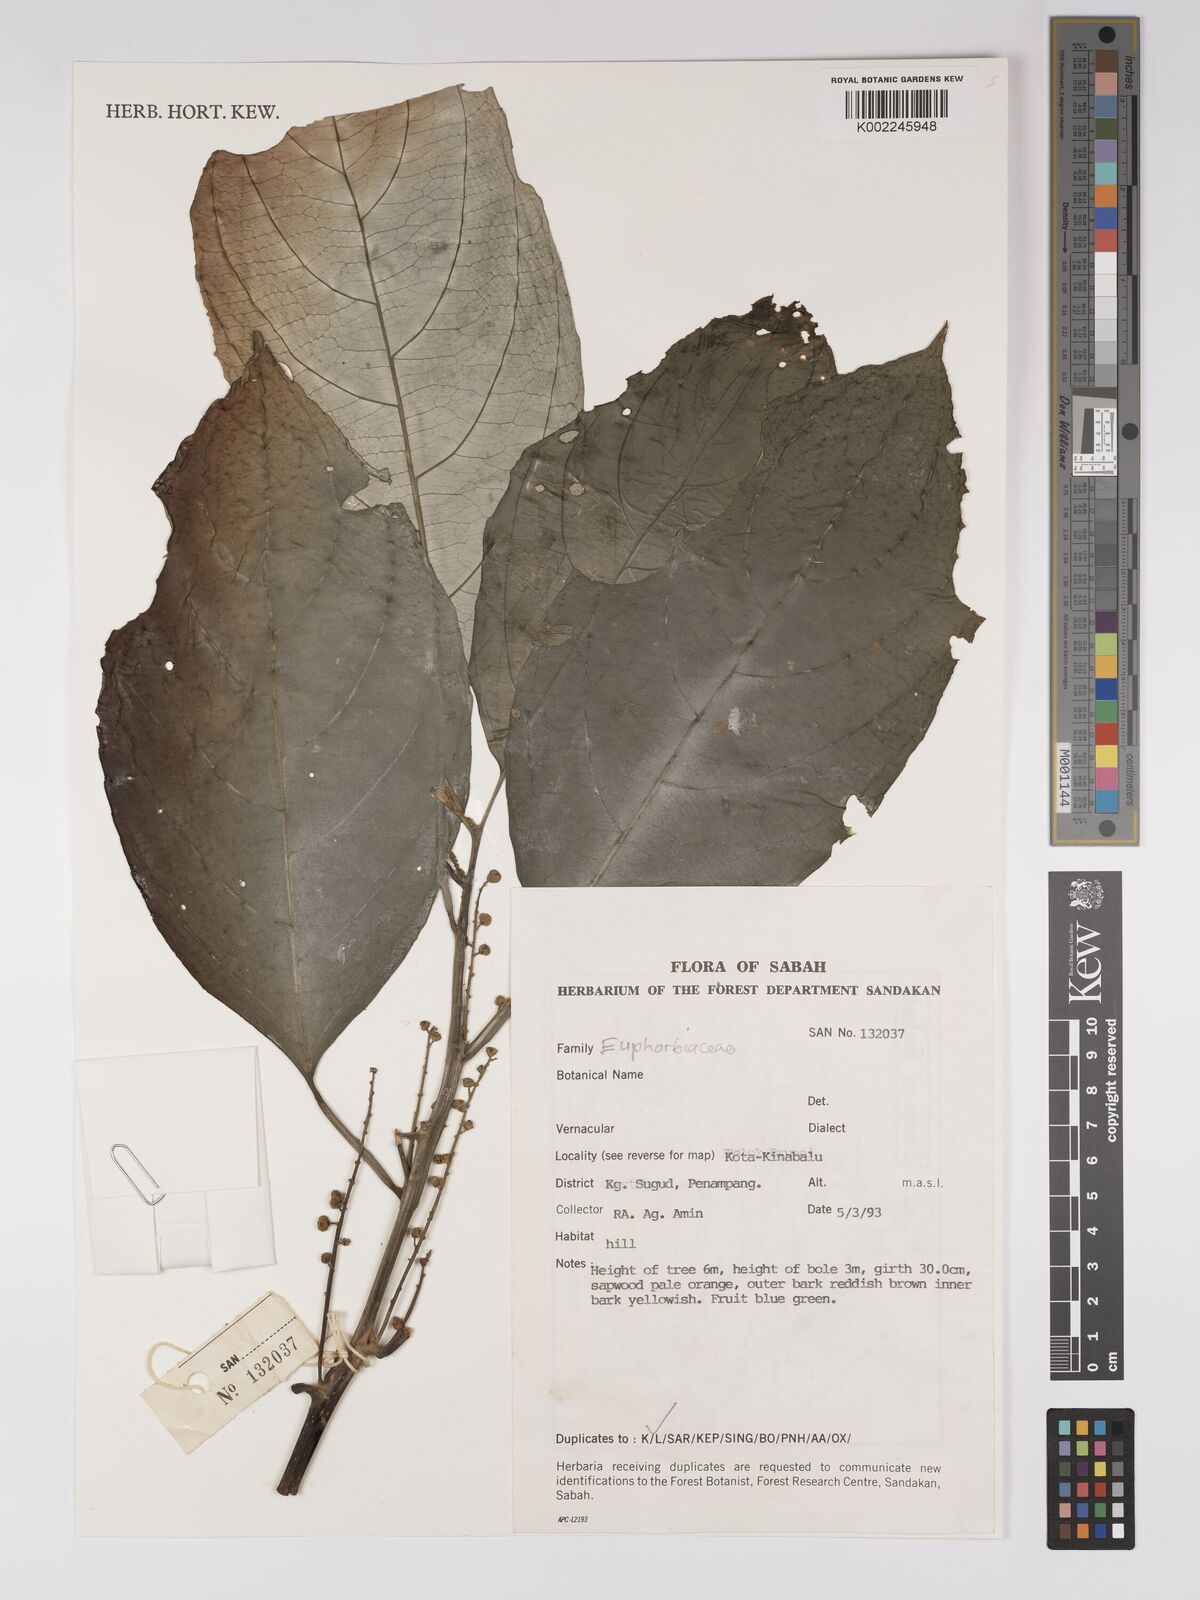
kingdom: Plantae
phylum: Tracheophyta
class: Magnoliopsida
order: Malpighiales
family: Euphorbiaceae
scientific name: Euphorbiaceae
